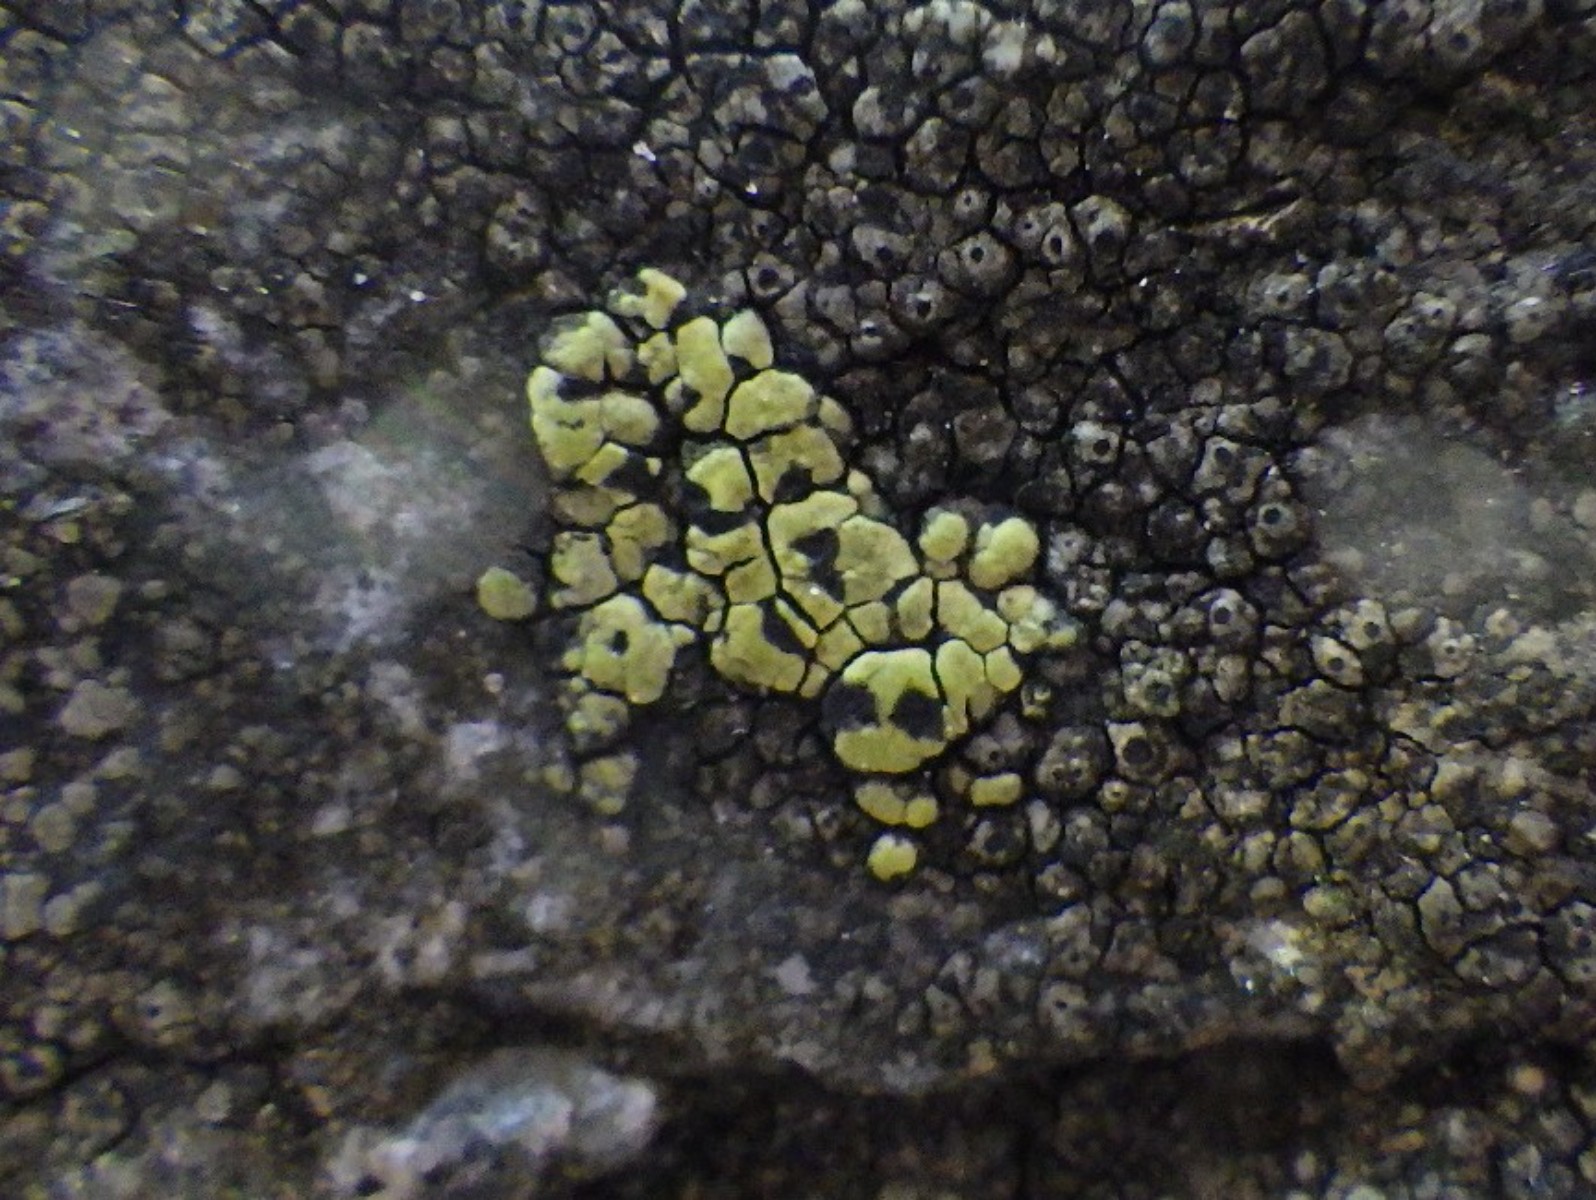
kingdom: Fungi
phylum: Ascomycota
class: Lecanoromycetes
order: Rhizocarpales
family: Rhizocarpaceae
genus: Rhizocarpon
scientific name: Rhizocarpon lecanorinum
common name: krave-landkortlav
